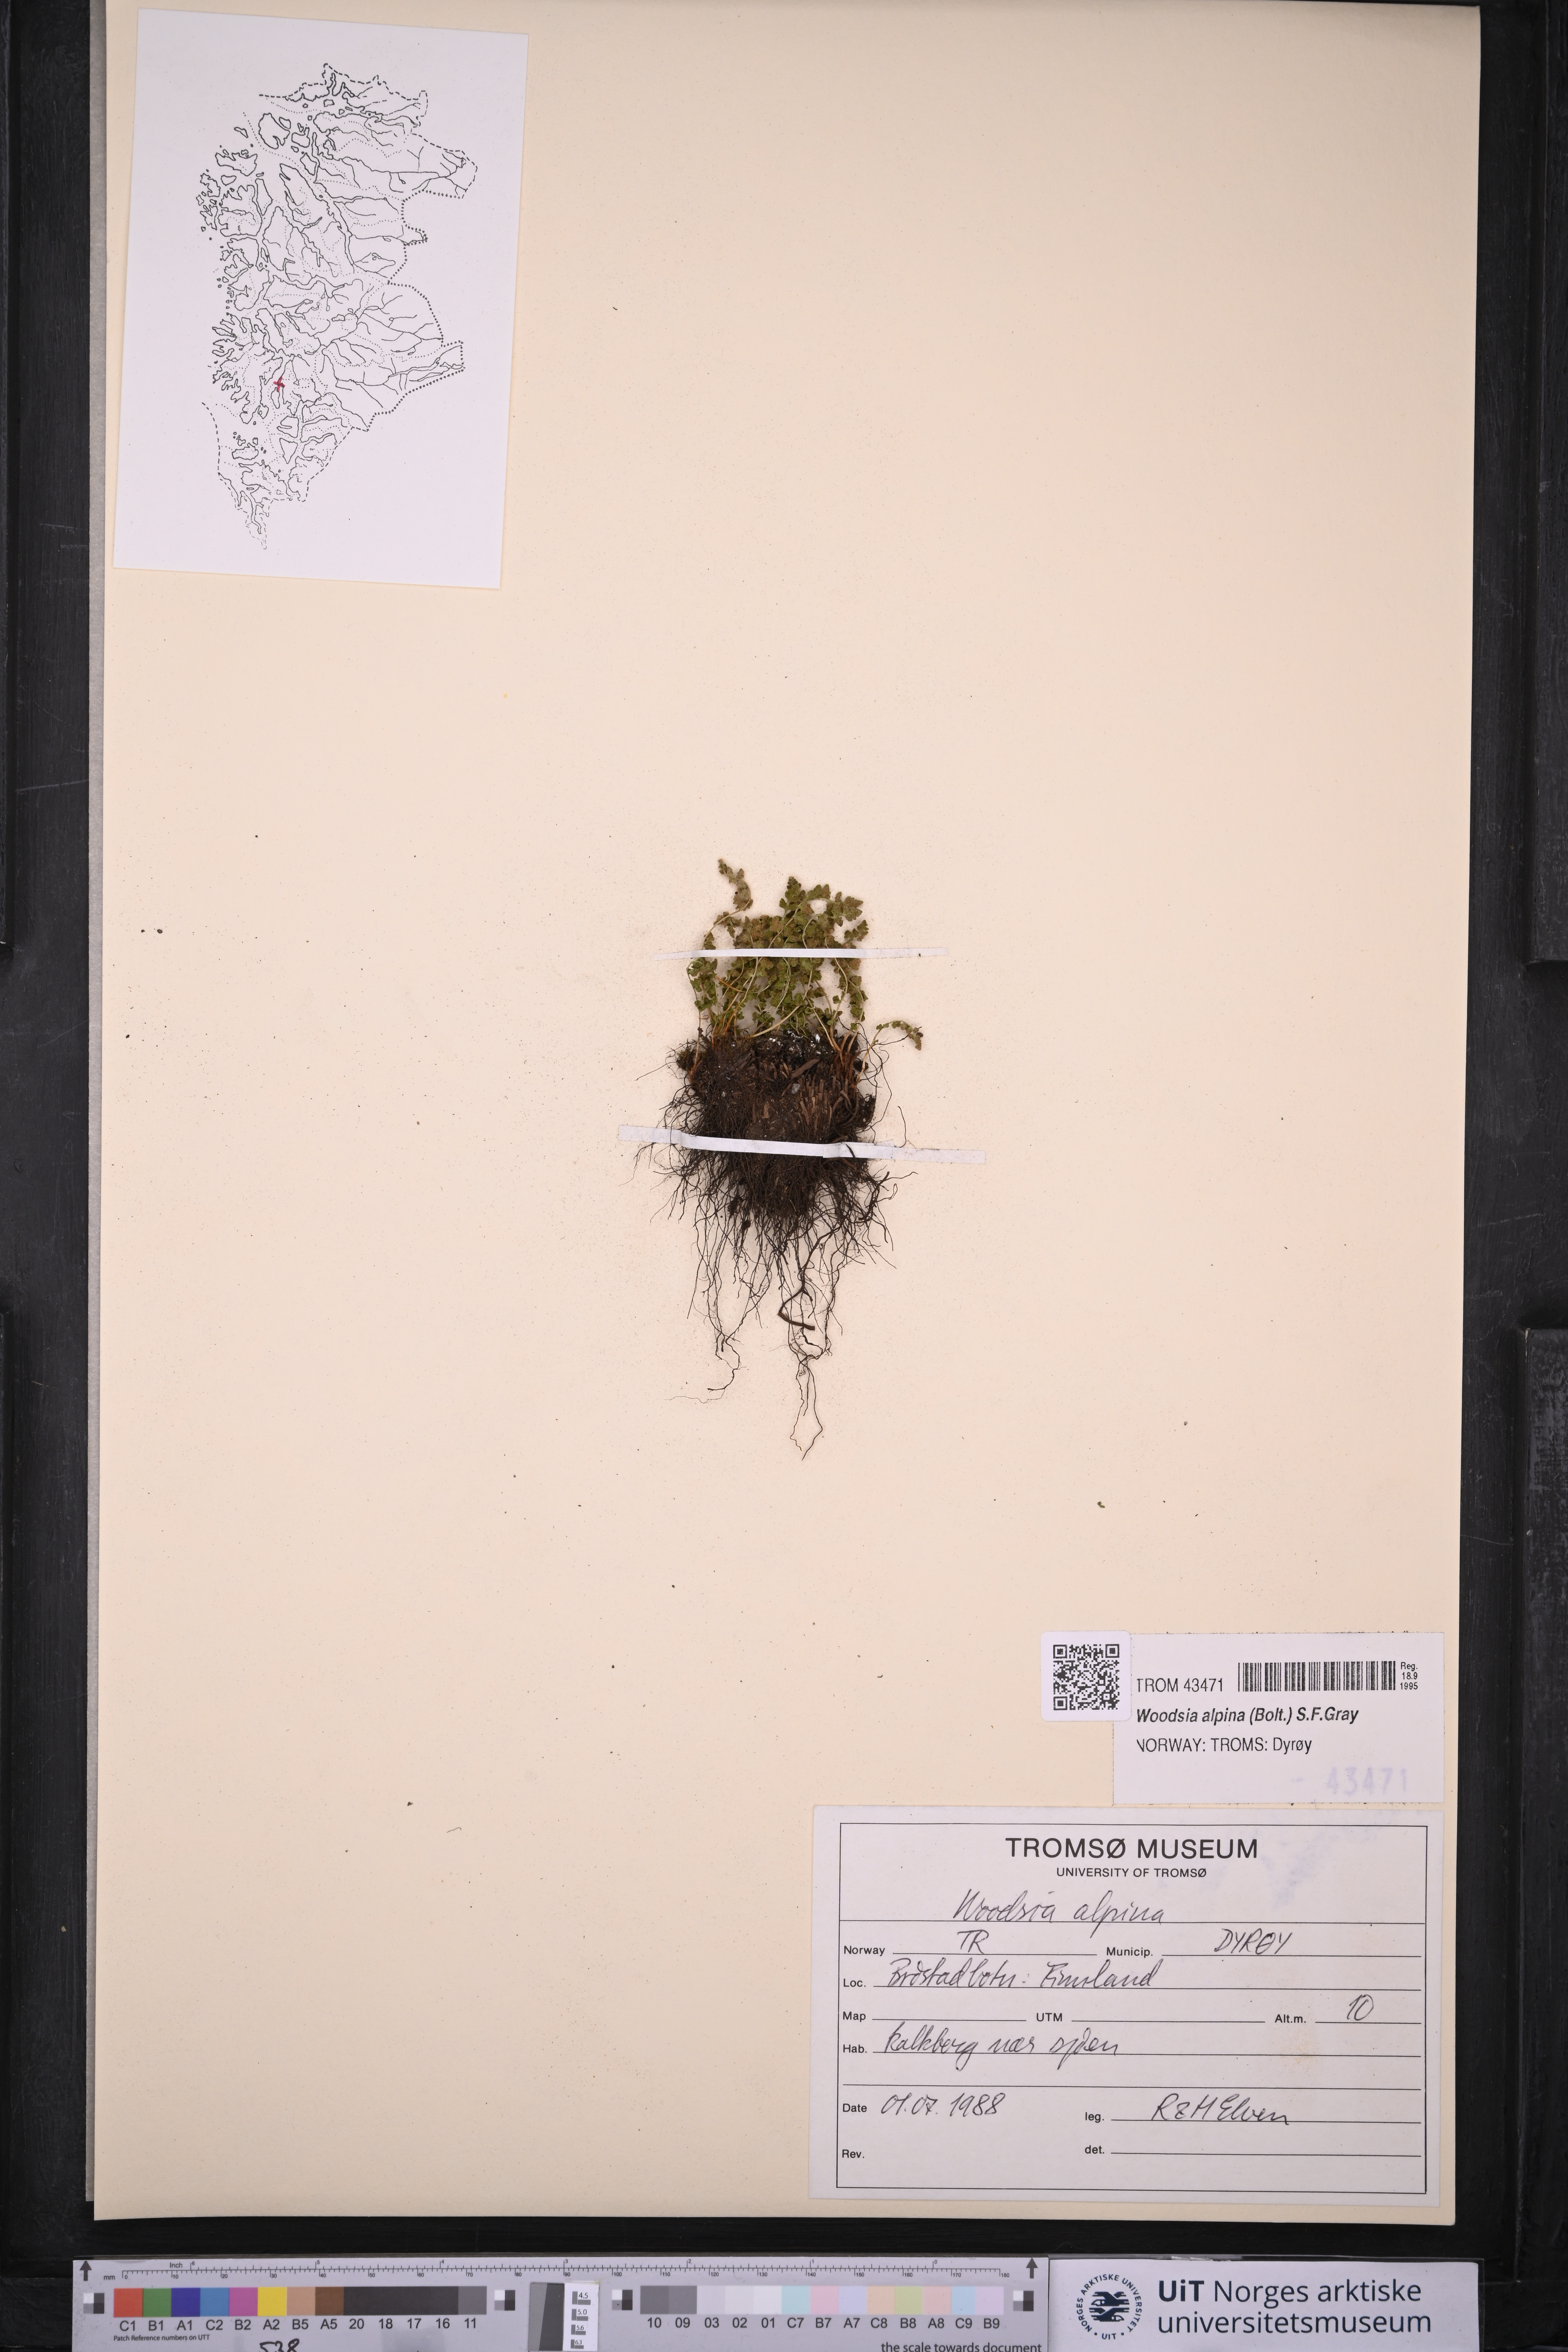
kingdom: Plantae
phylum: Tracheophyta
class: Polypodiopsida
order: Polypodiales
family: Woodsiaceae
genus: Woodsia
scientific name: Woodsia alpina
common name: Alpine woodsia
